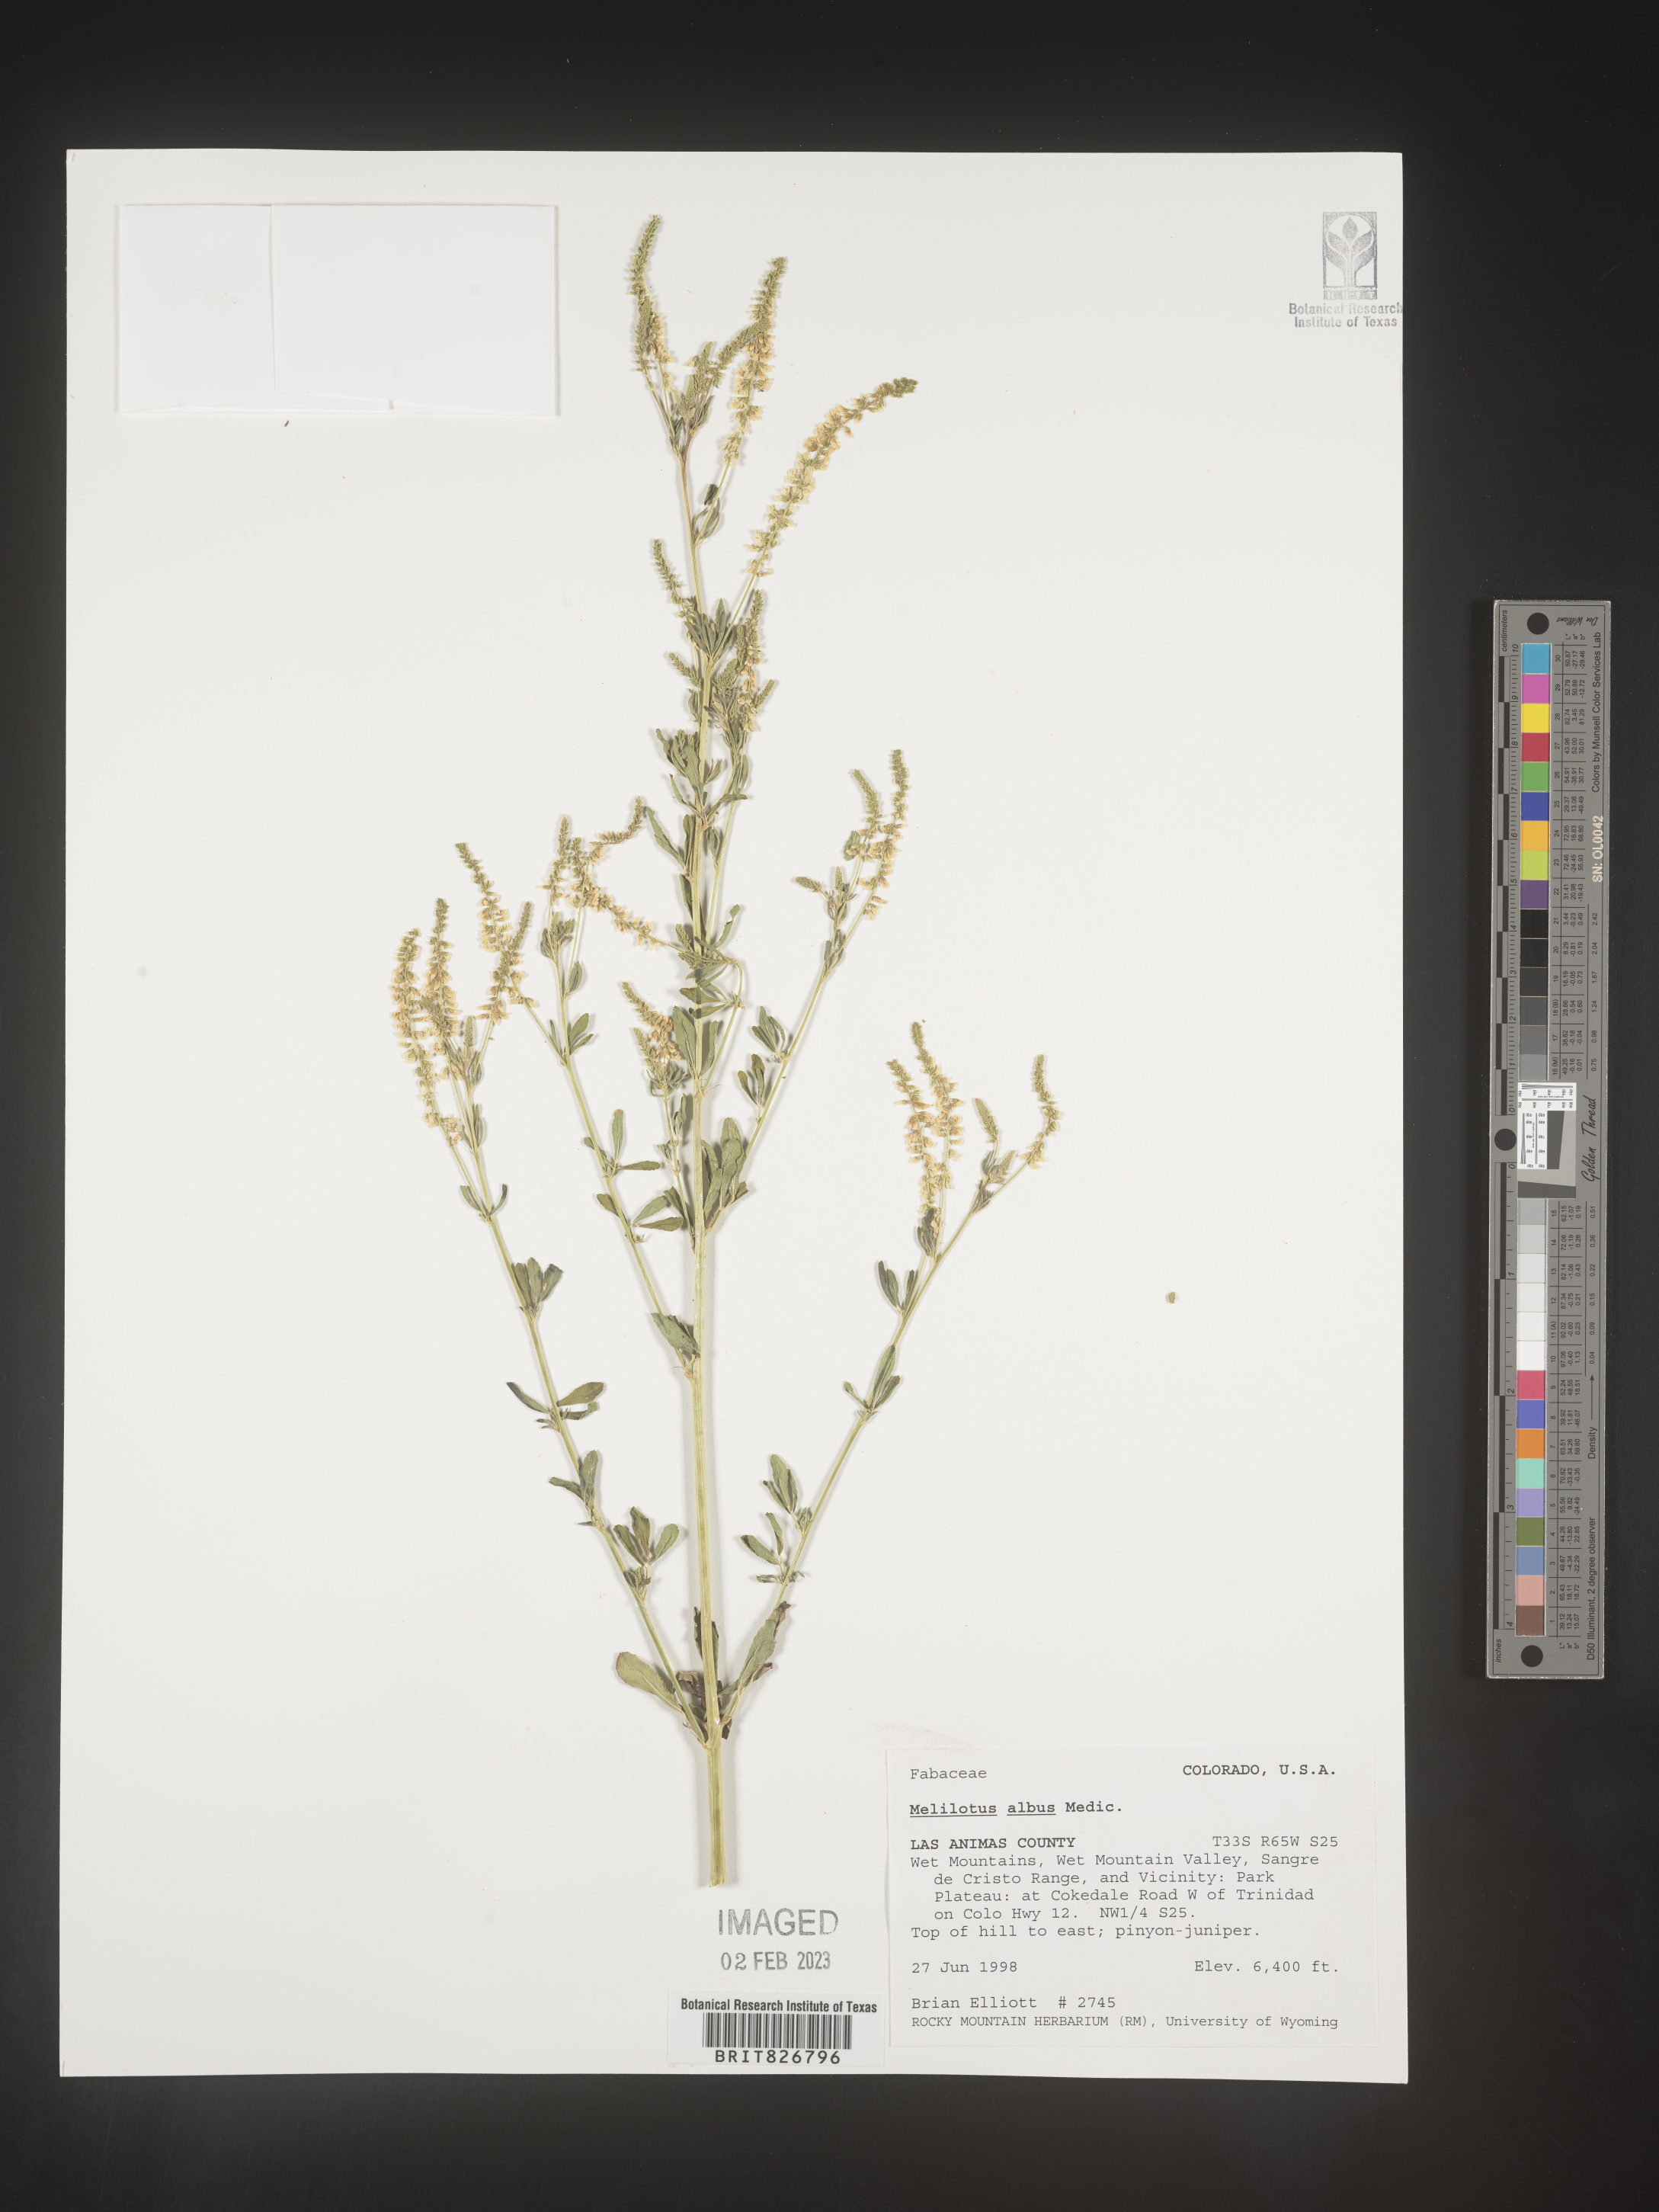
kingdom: Plantae
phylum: Tracheophyta
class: Magnoliopsida
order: Fabales
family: Fabaceae
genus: Melilotus
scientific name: Melilotus albus
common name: White melilot
